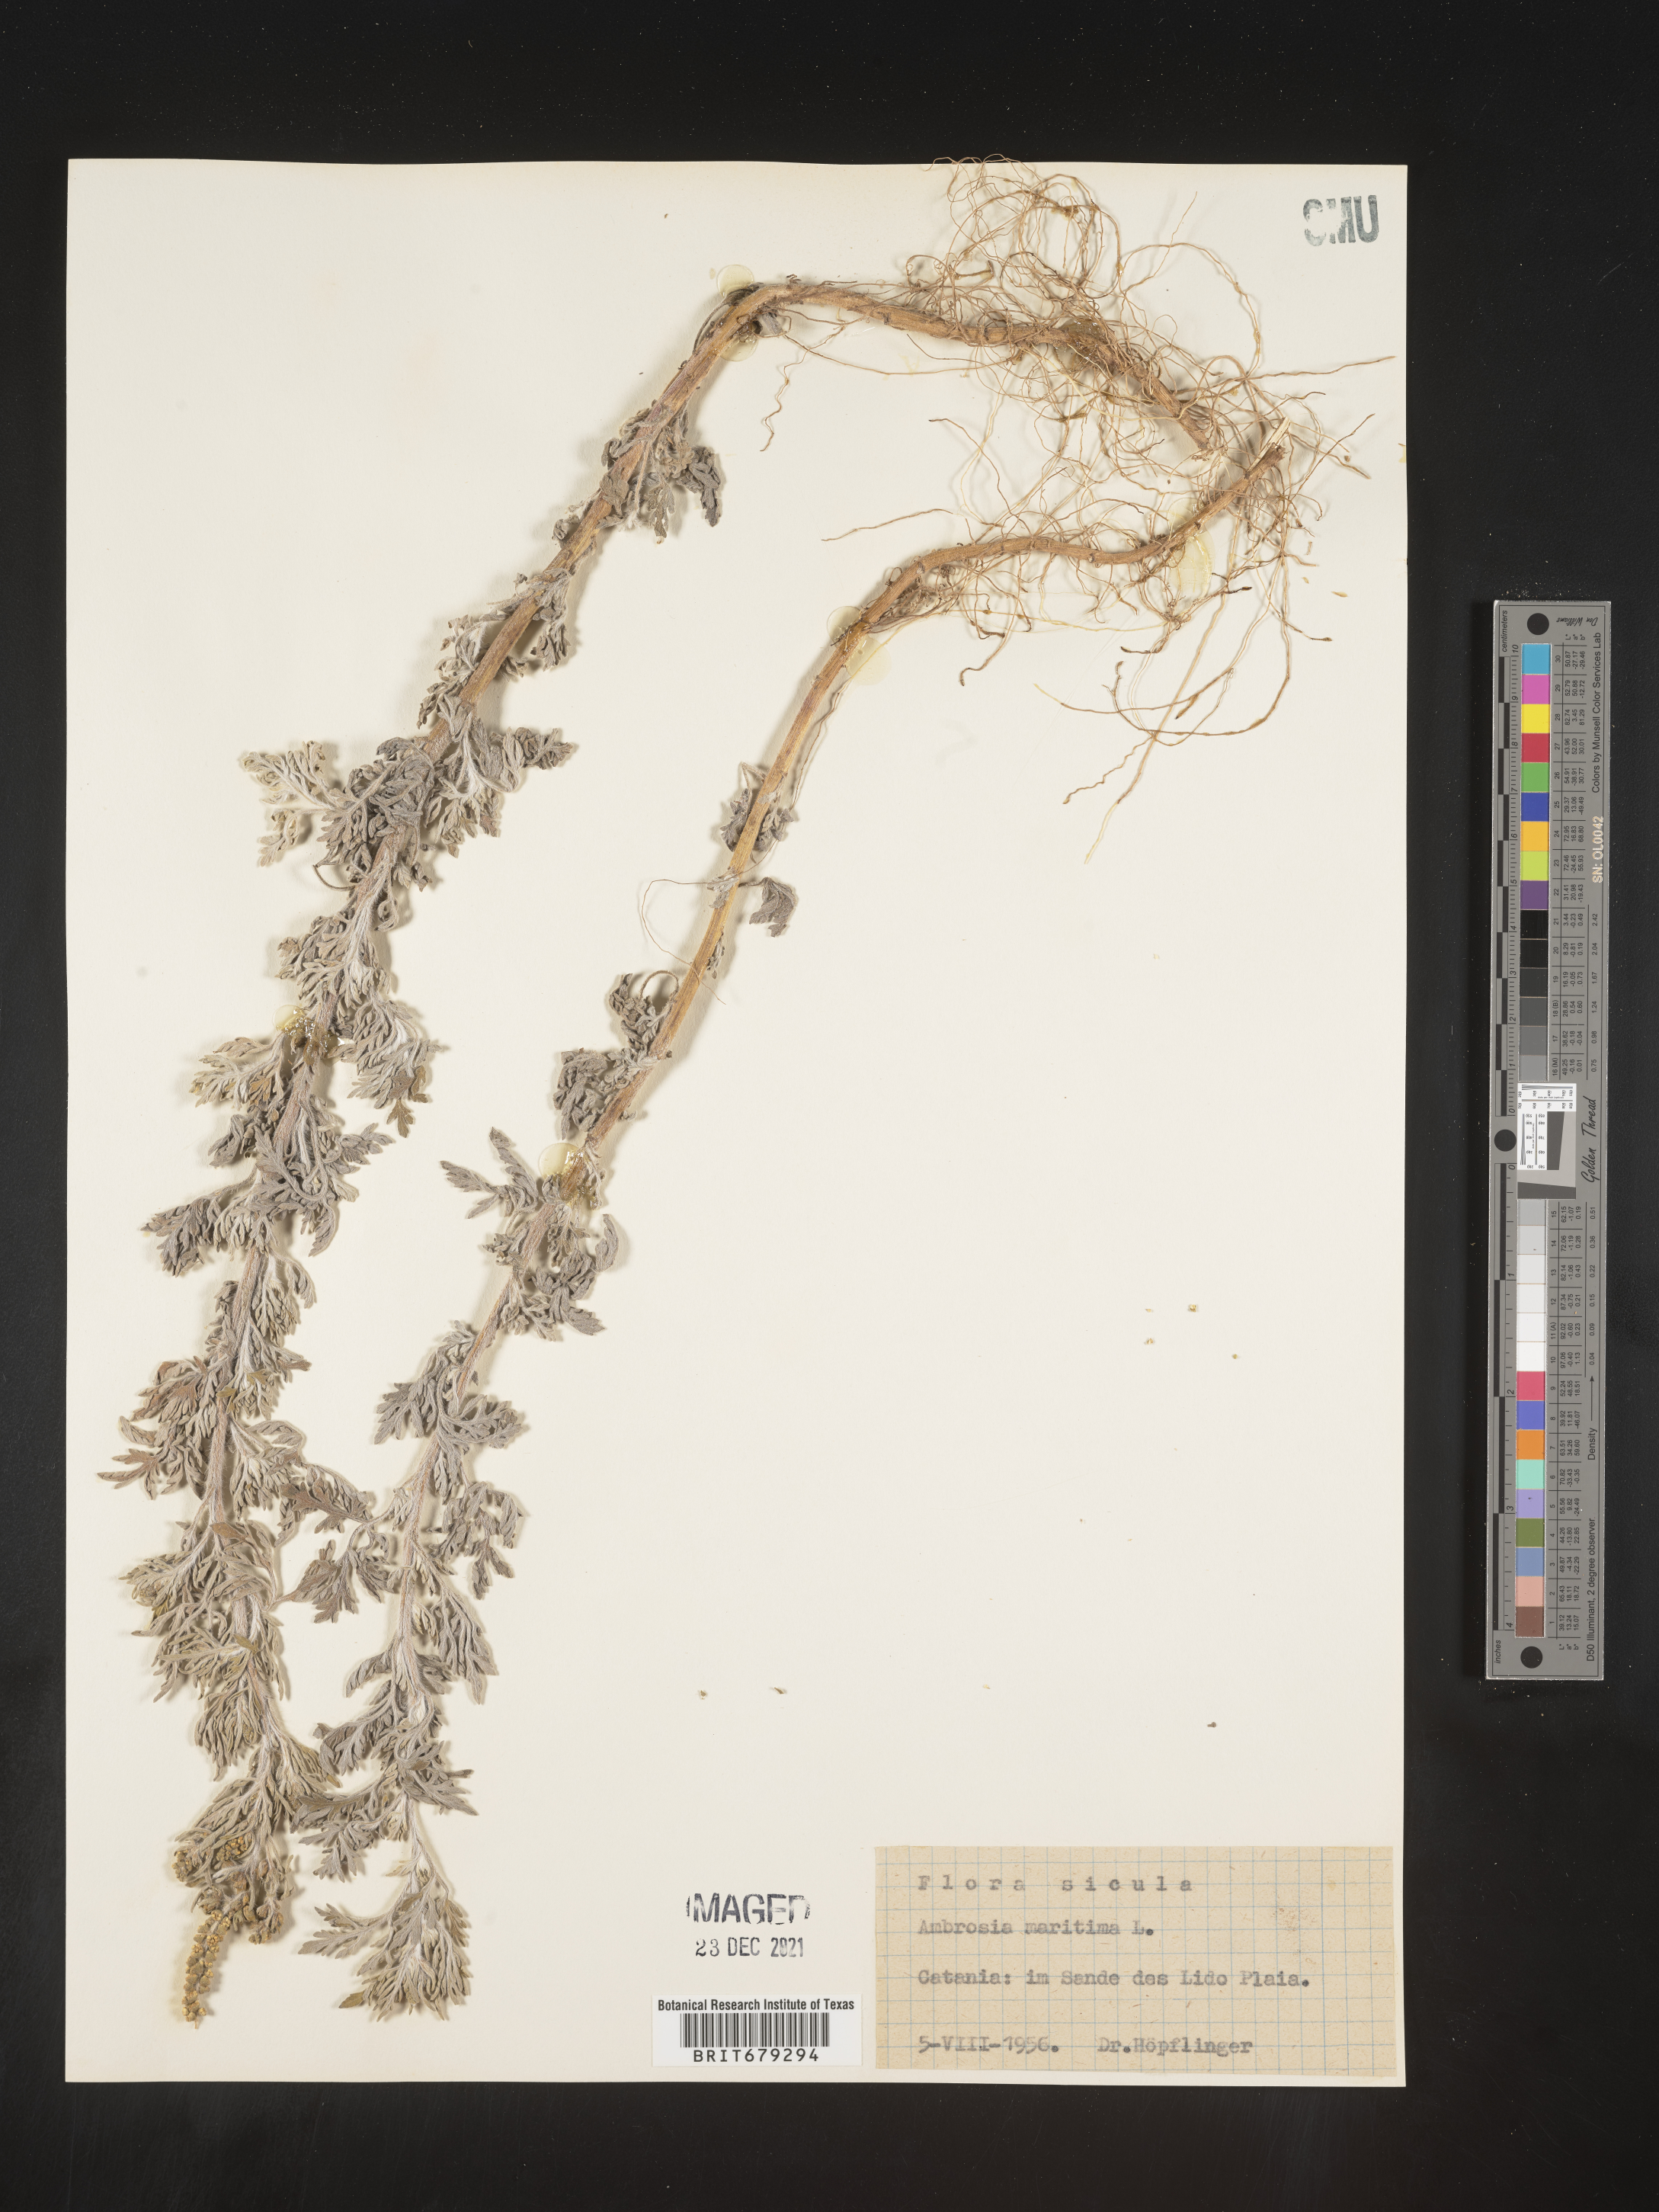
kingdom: Plantae
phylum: Tracheophyta
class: Magnoliopsida
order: Asterales
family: Asteraceae
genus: Ambrosia
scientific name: Ambrosia
